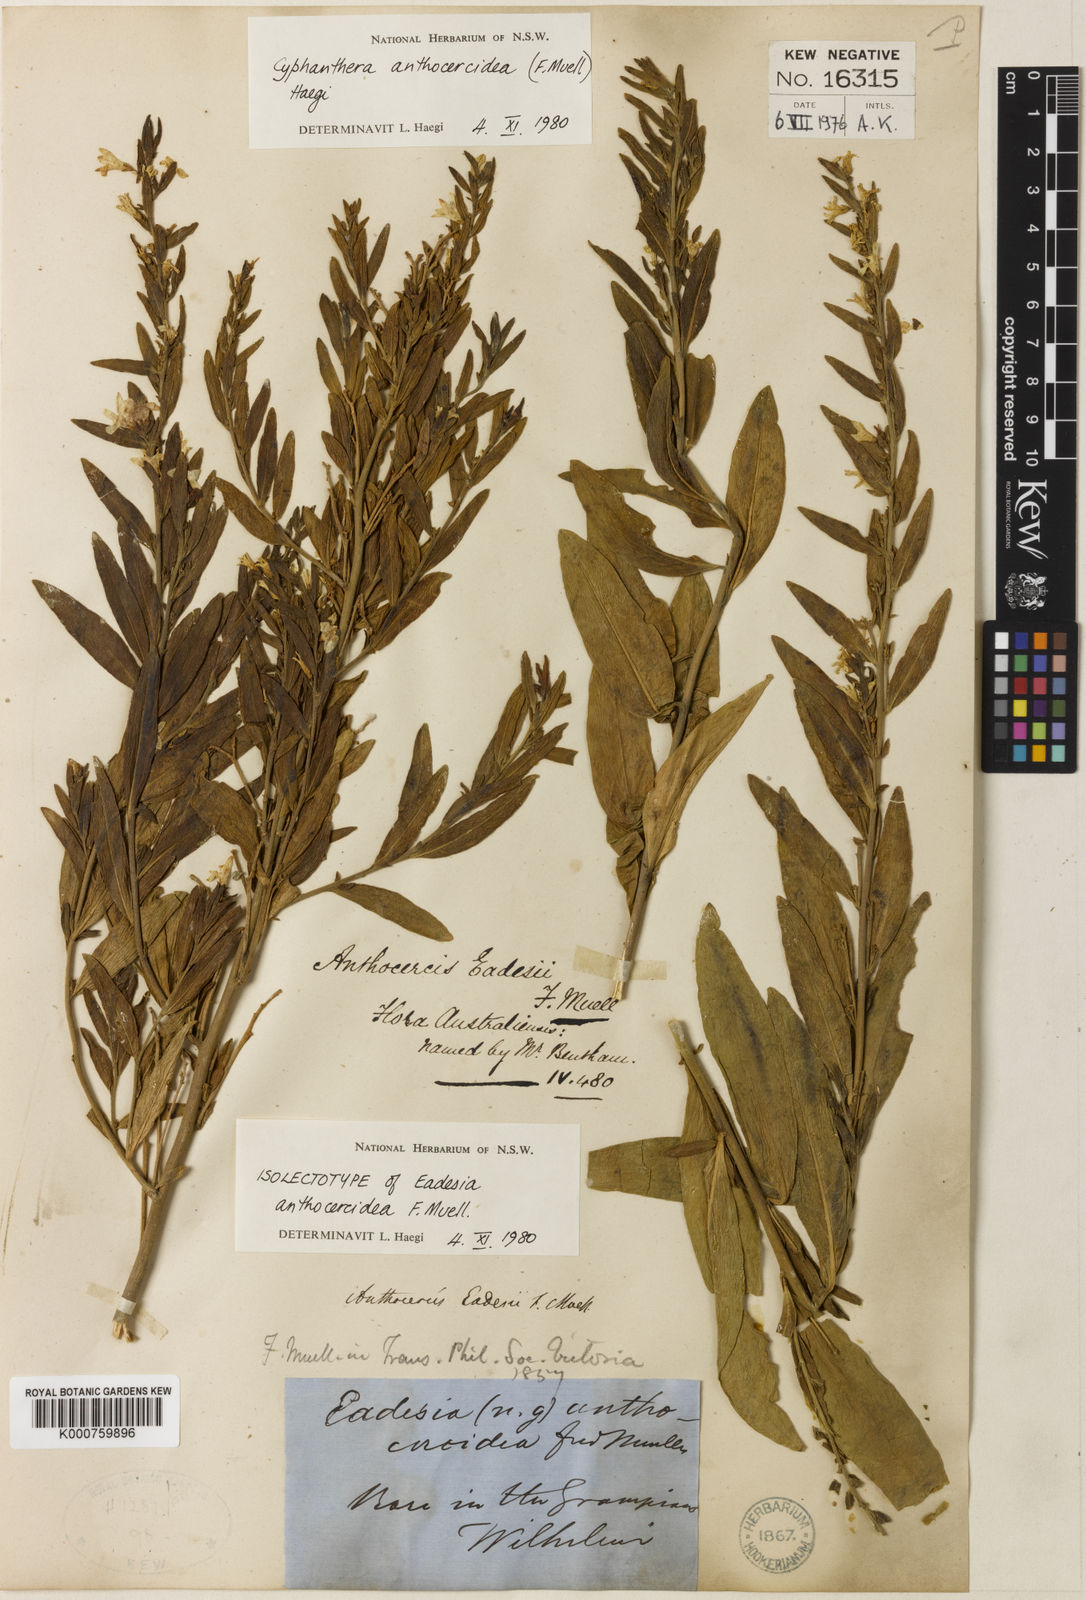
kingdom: Plantae
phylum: Tracheophyta
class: Magnoliopsida
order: Solanales
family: Solanaceae
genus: Cyphanthera
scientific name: Cyphanthera anthocercidea
